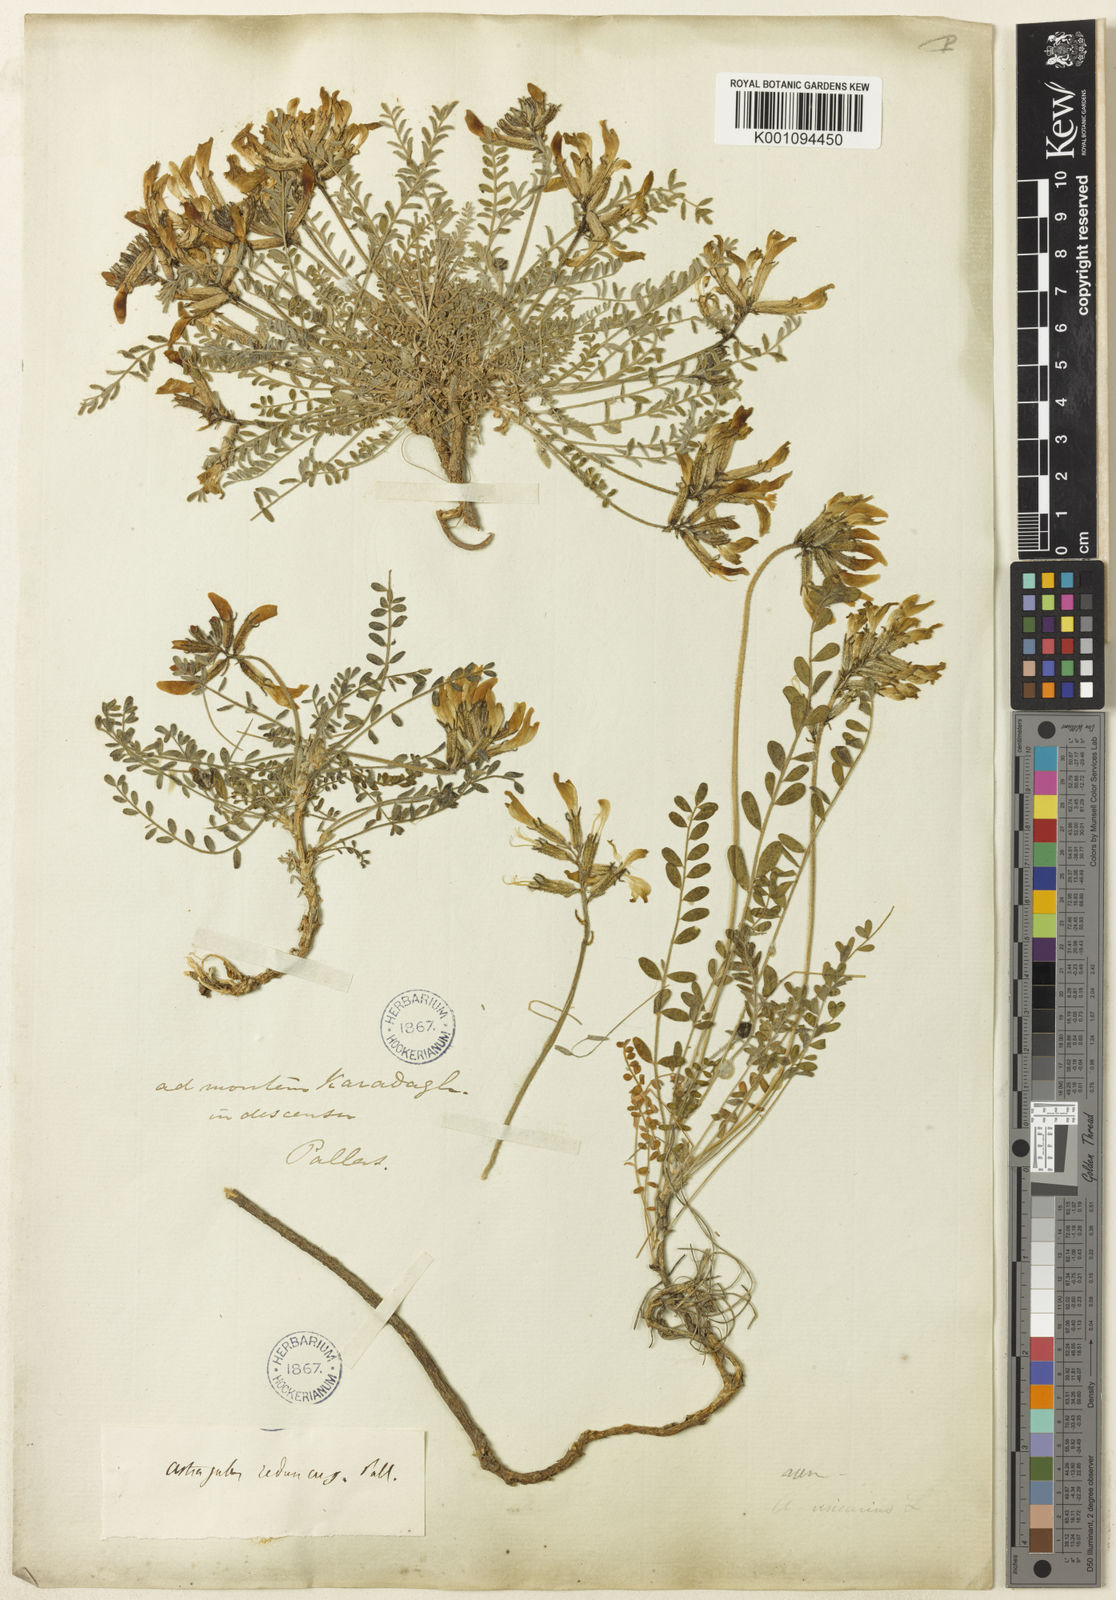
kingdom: Plantae
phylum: Tracheophyta
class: Magnoliopsida
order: Fabales
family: Fabaceae
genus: Astragalus
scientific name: Astragalus
